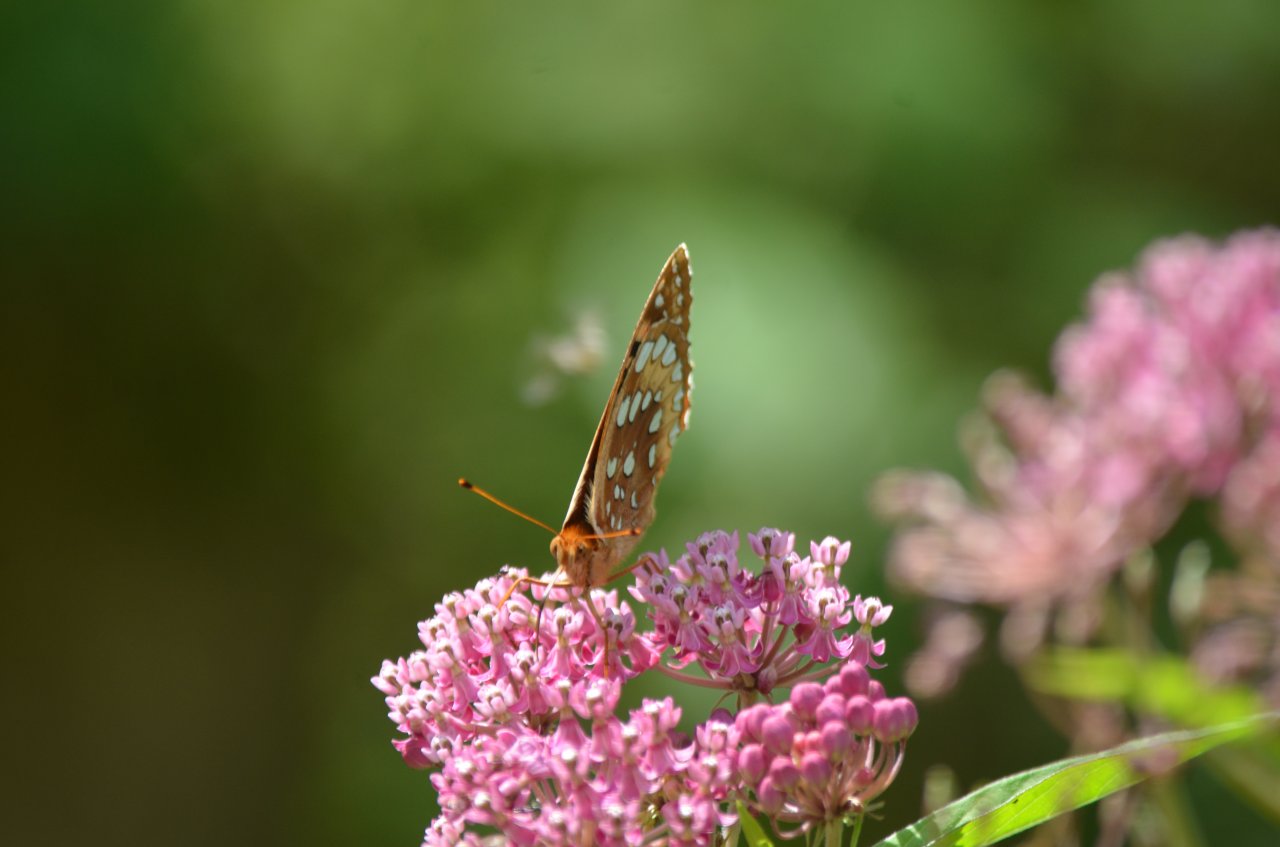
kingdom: Animalia
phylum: Arthropoda
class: Insecta
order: Lepidoptera
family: Nymphalidae
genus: Speyeria
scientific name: Speyeria cybele
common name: Great Spangled Fritillary
